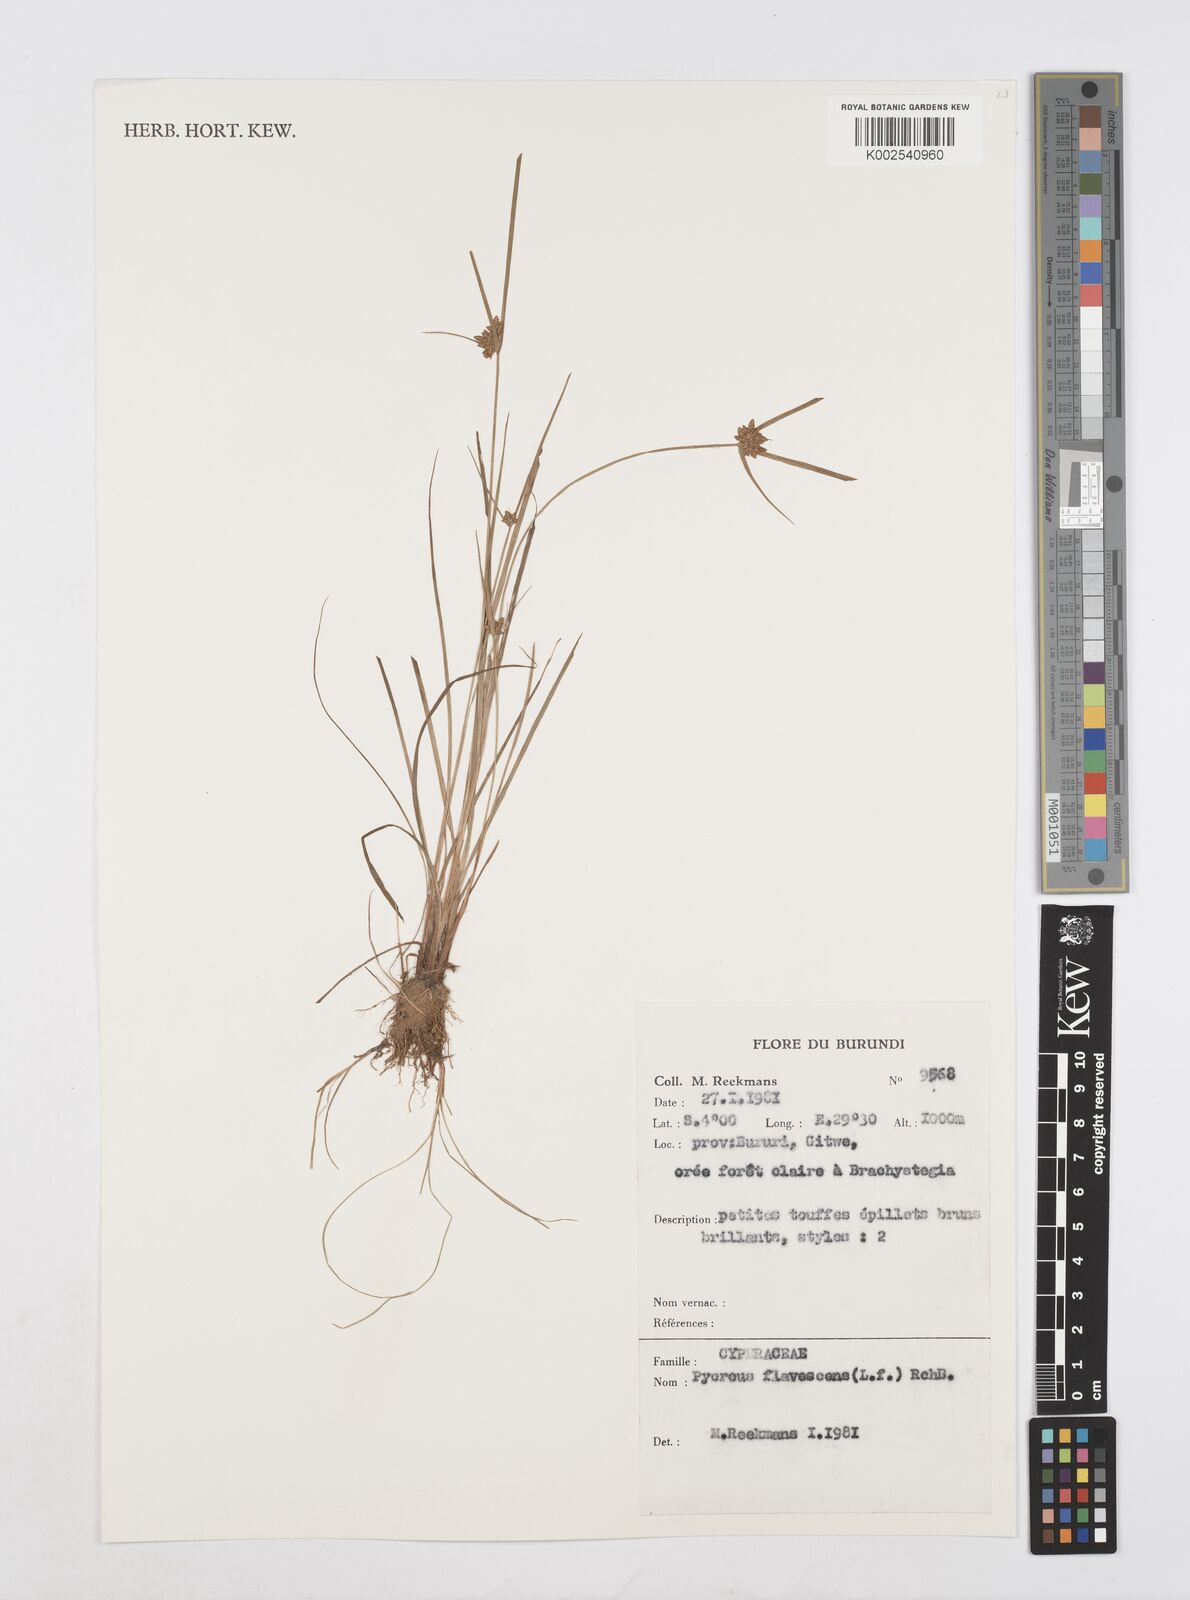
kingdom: Plantae
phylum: Tracheophyta
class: Liliopsida
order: Poales
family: Cyperaceae
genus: Cyperus
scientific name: Cyperus flavescens
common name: Yellow galingale
